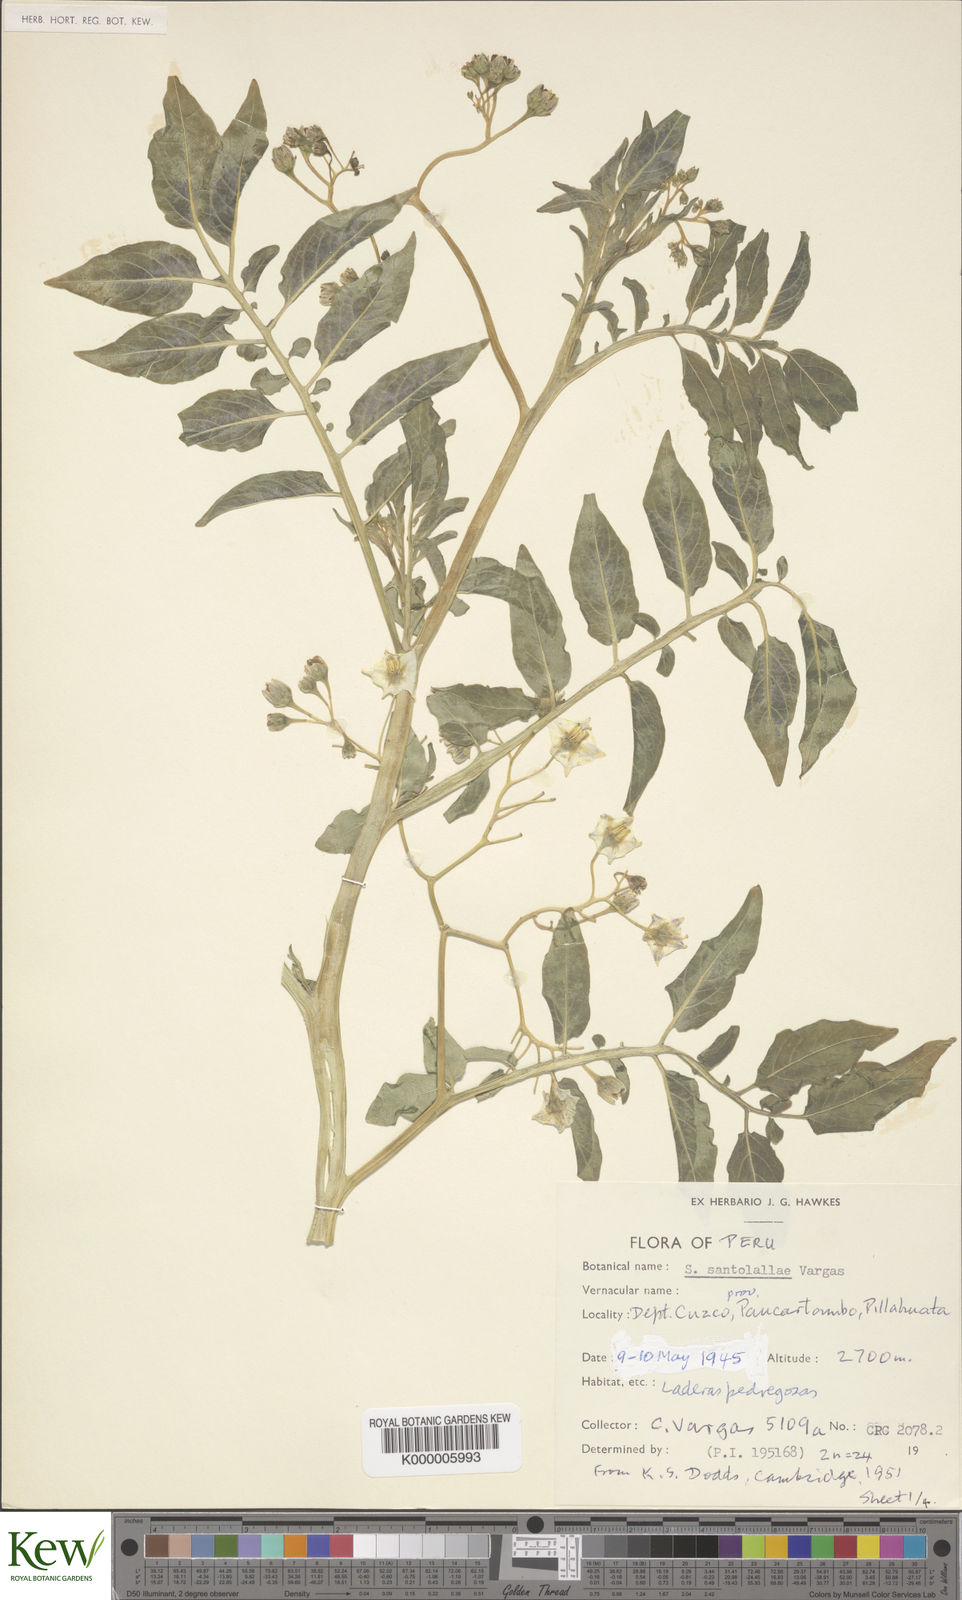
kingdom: Plantae
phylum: Tracheophyta
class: Magnoliopsida
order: Solanales
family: Solanaceae
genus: Solanum
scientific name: Solanum violaceimarmoratum
